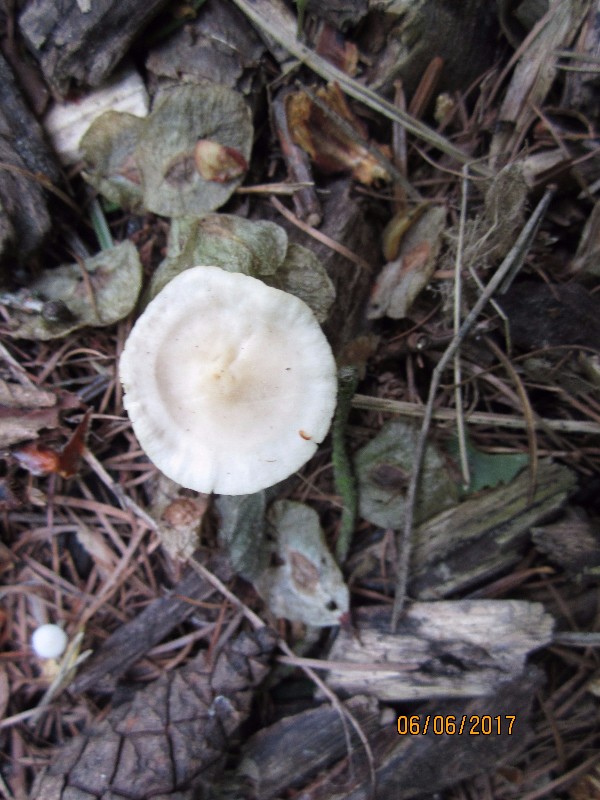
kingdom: Fungi
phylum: Basidiomycota
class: Agaricomycetes
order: Agaricales
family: Physalacriaceae
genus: Strobilurus
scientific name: Strobilurus tenacellus
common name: sommer-koglehat
